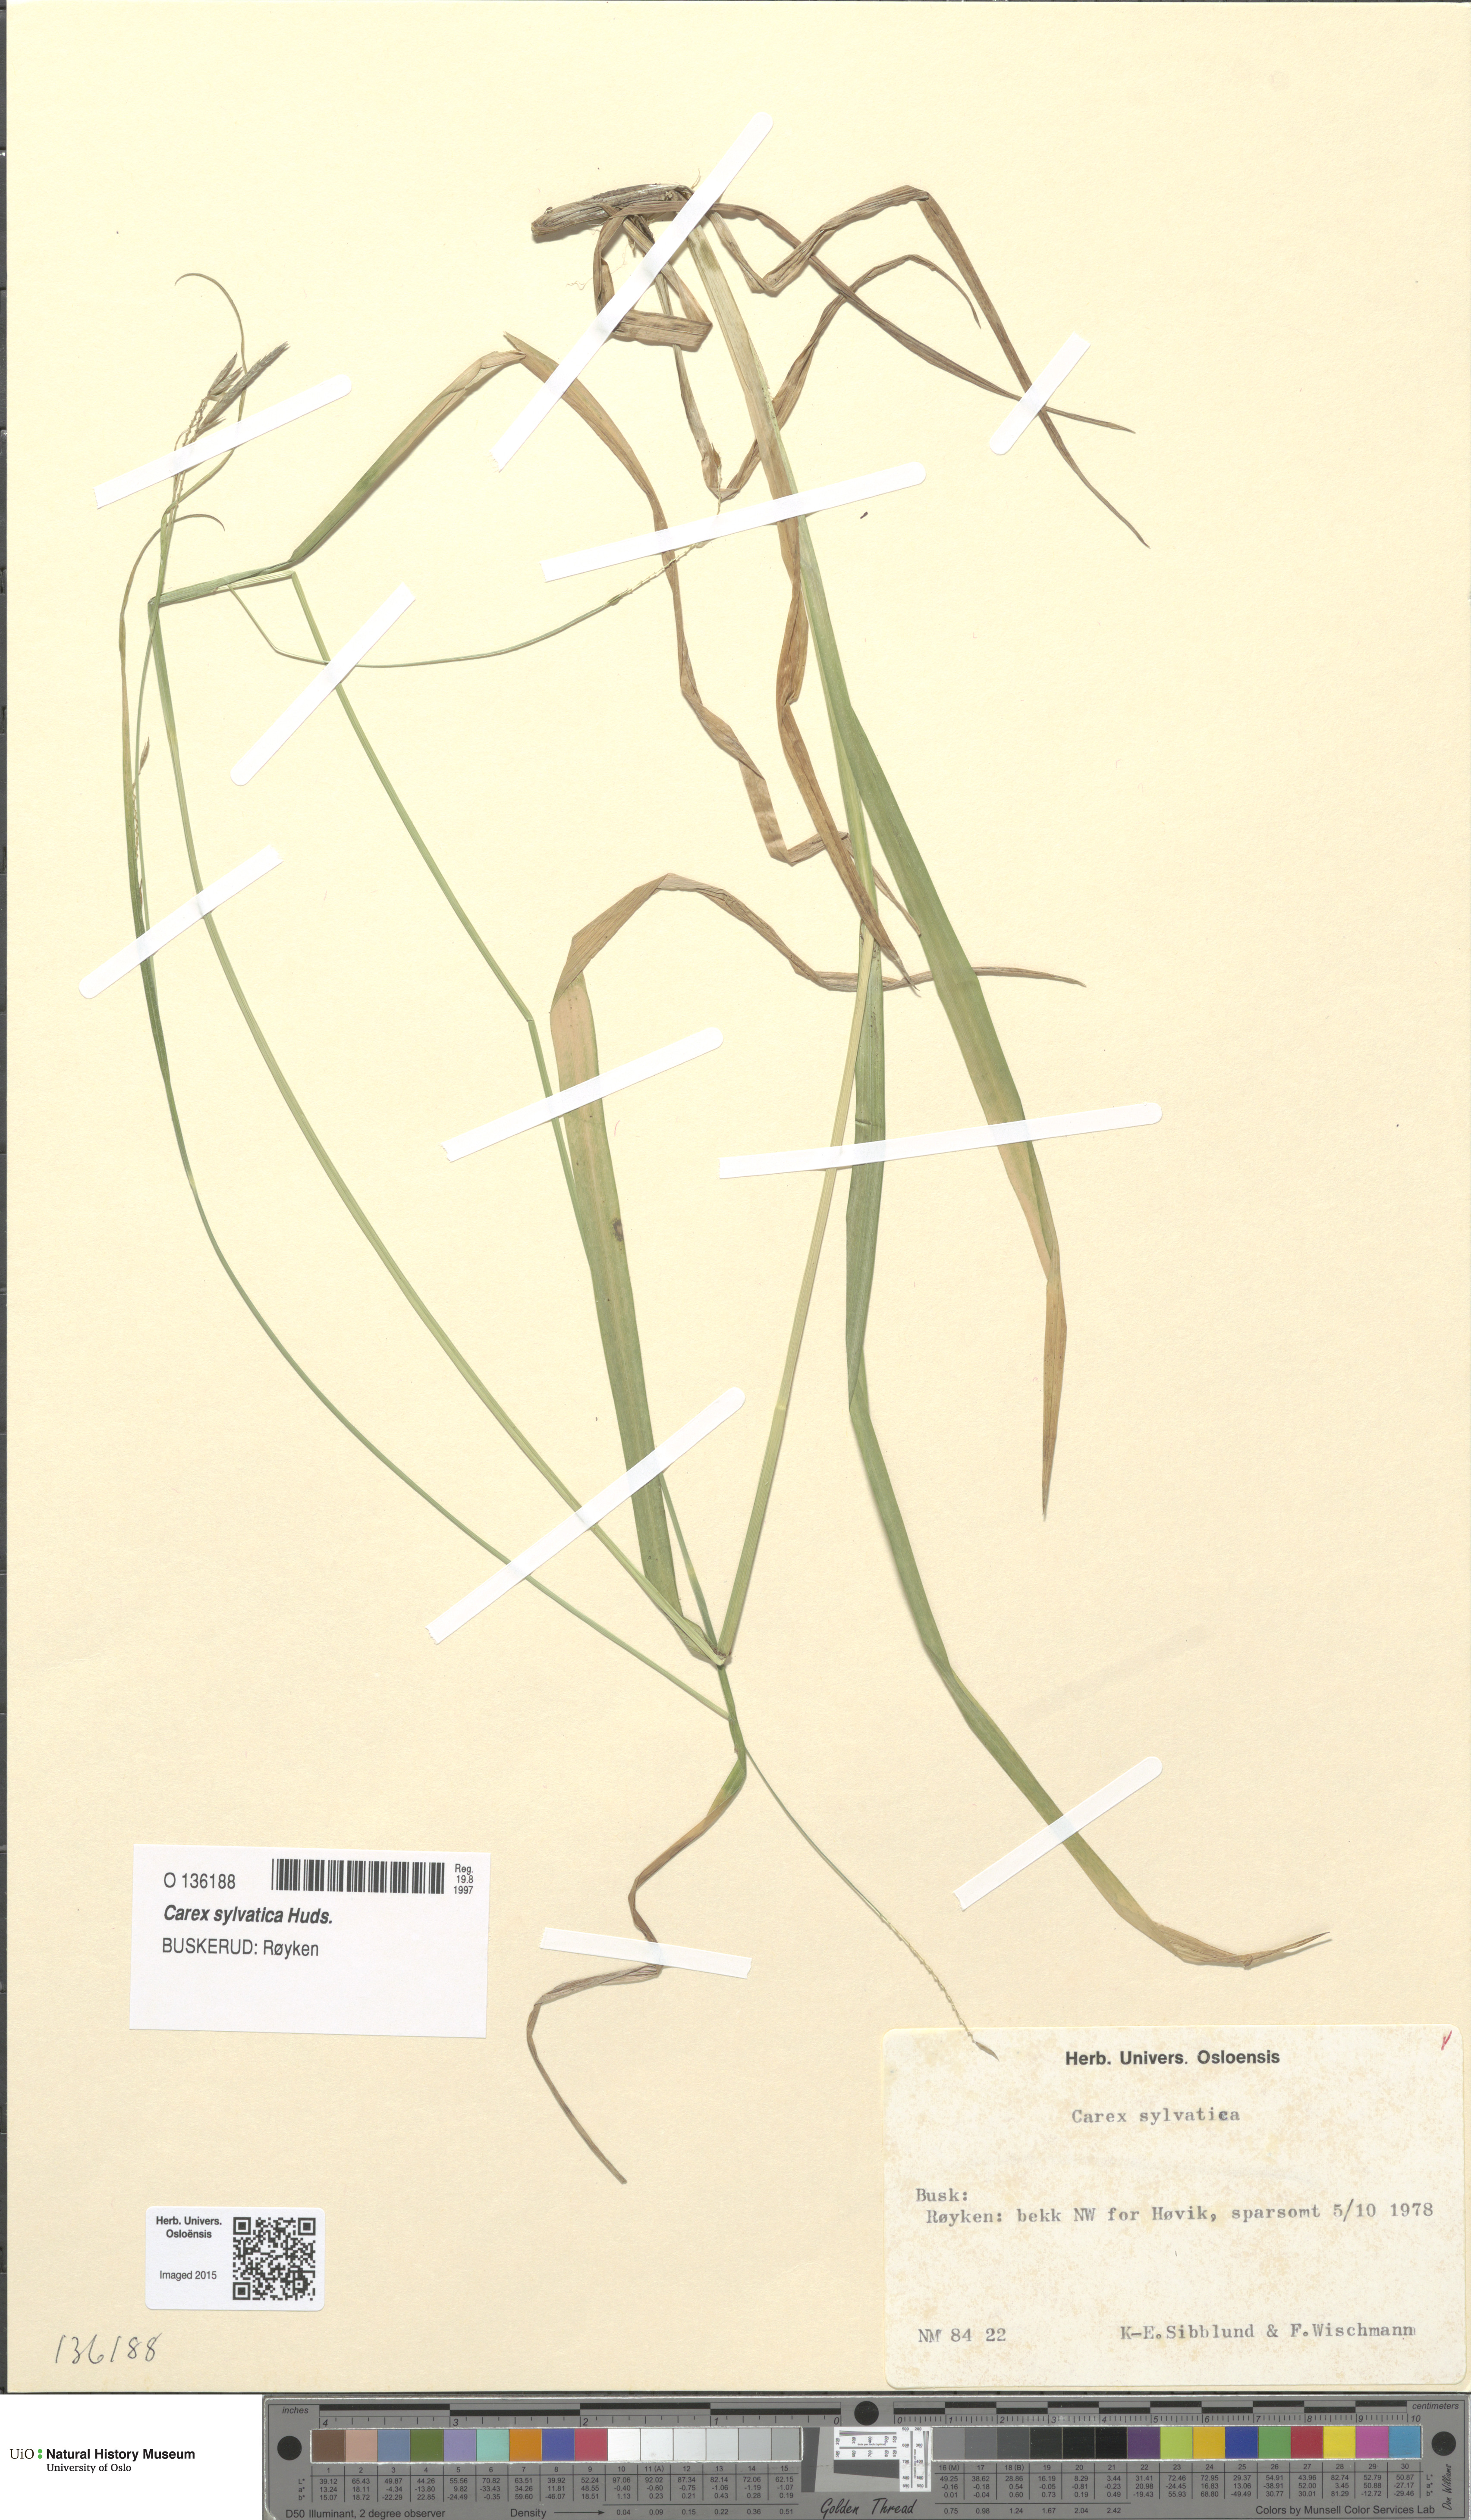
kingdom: Plantae
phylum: Tracheophyta
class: Liliopsida
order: Poales
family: Cyperaceae
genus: Carex
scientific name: Carex sylvatica
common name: Wood-sedge
